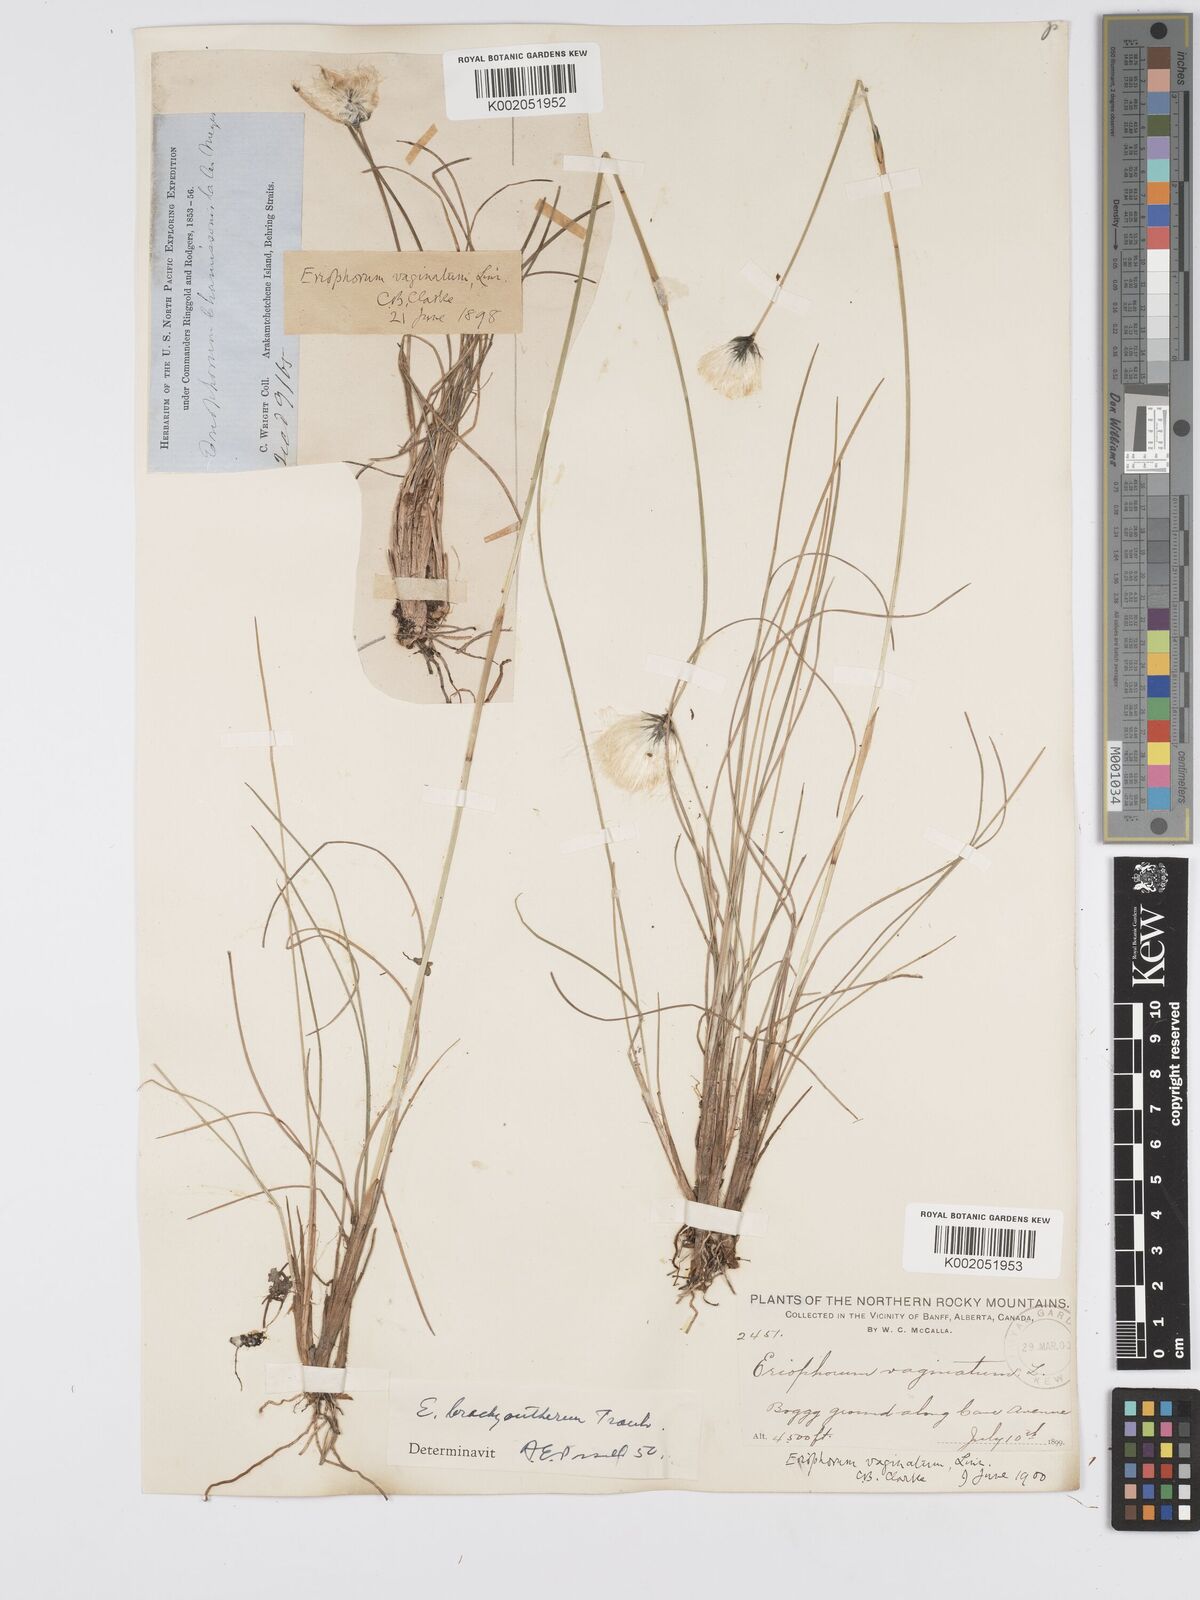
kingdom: Plantae
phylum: Tracheophyta
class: Liliopsida
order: Poales
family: Cyperaceae
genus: Eriophorum
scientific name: Eriophorum brachyantherum
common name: Closed-sheathed cottongrass
